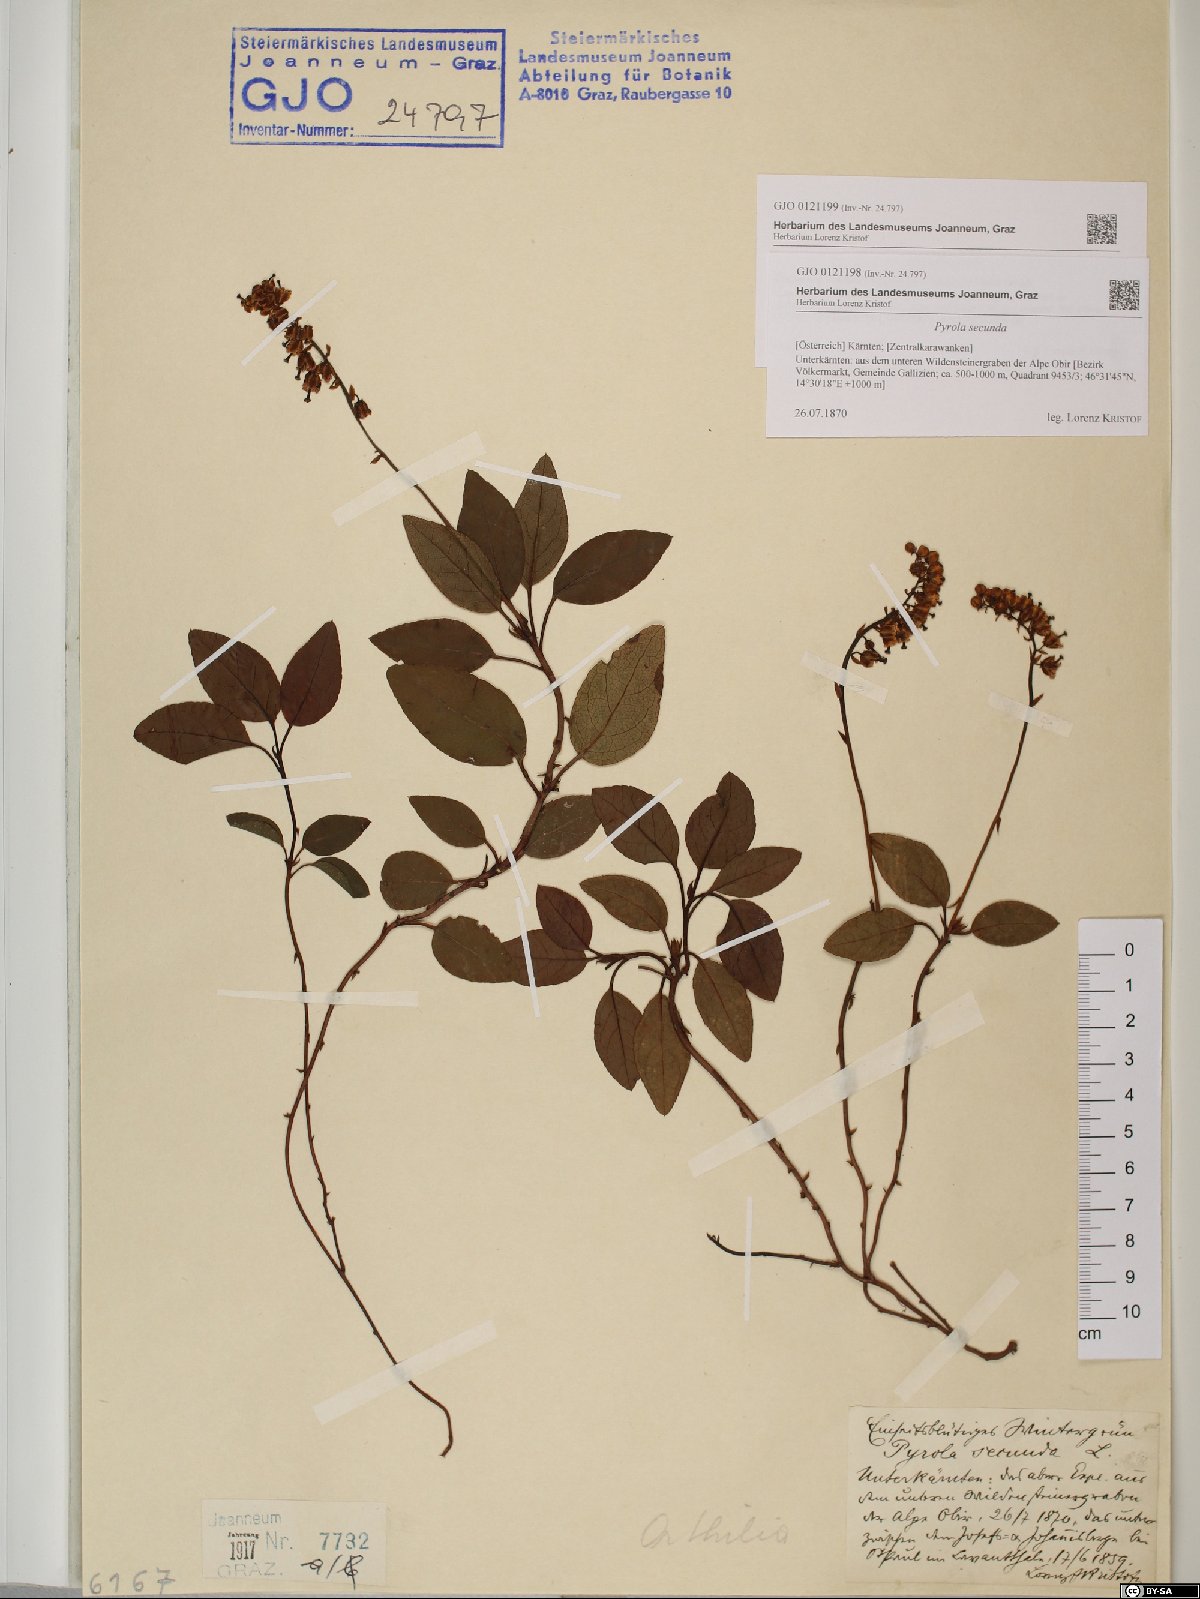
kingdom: Plantae
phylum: Tracheophyta
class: Magnoliopsida
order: Ericales
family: Ericaceae
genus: Orthilia
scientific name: Orthilia secunda
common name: One-sided orthilia
